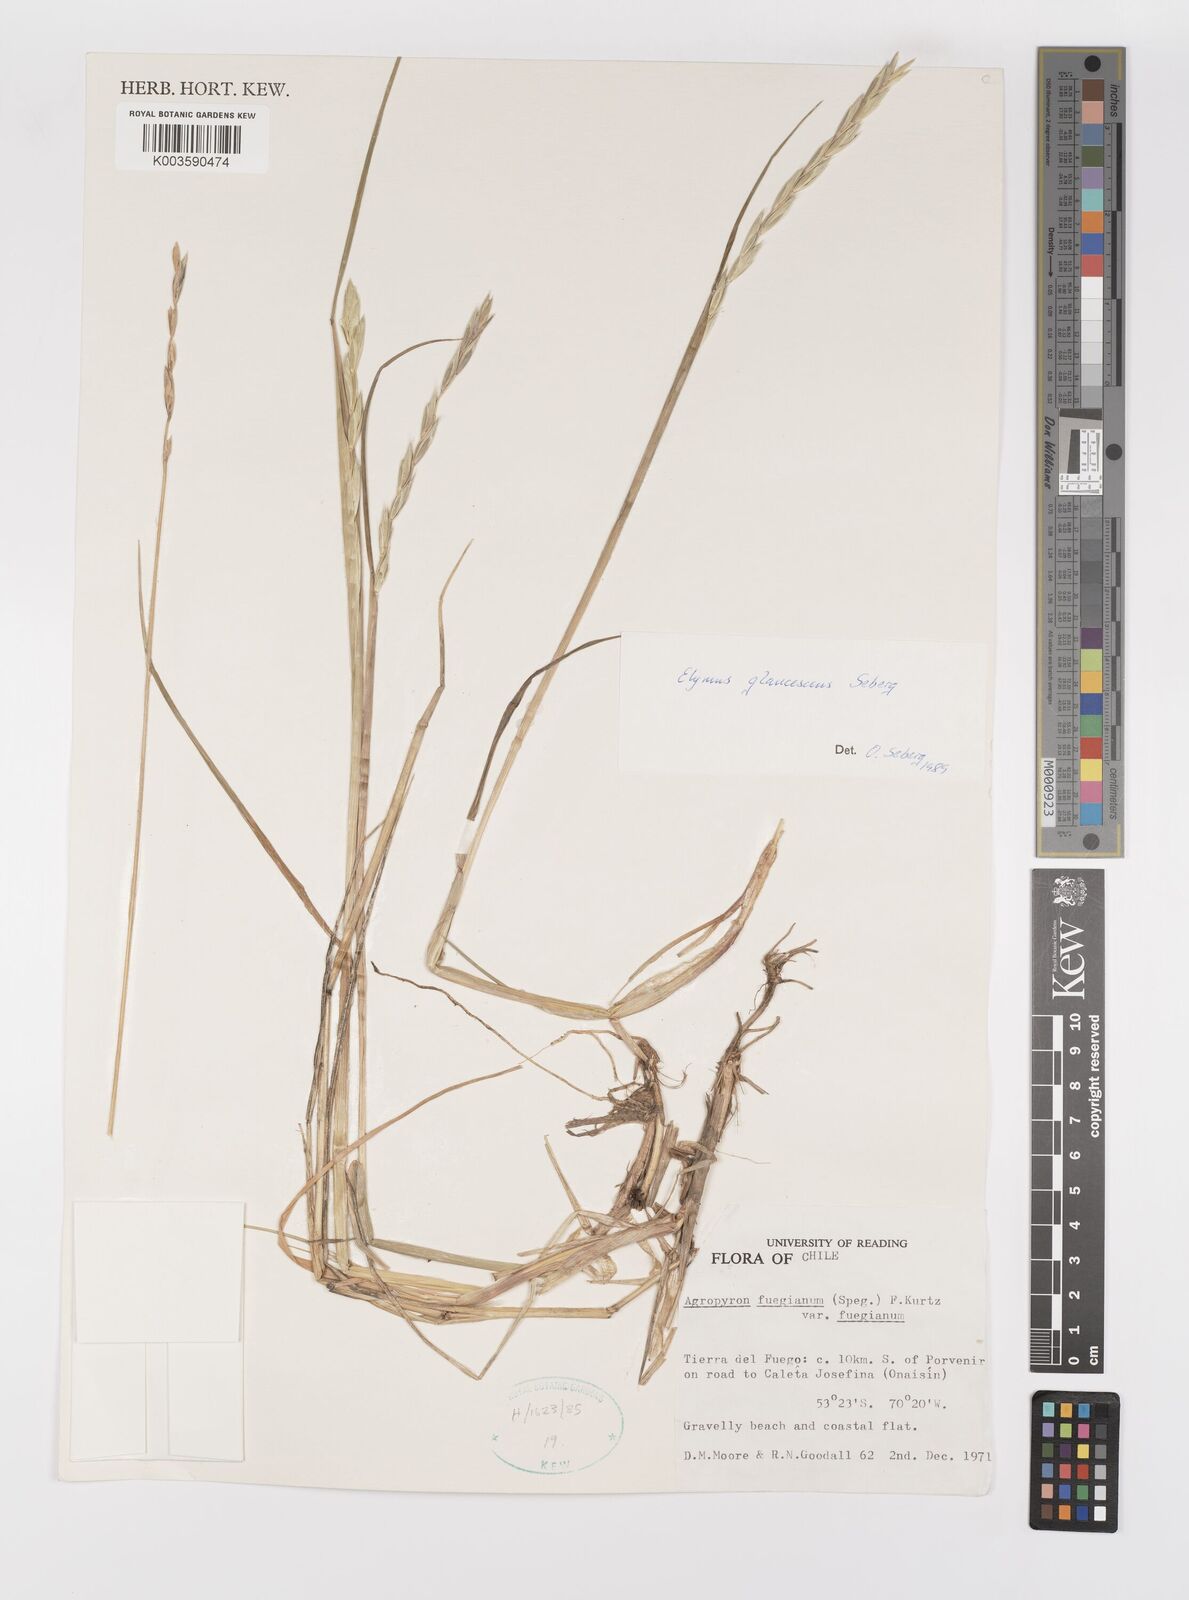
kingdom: Plantae
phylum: Tracheophyta
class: Liliopsida
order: Poales
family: Poaceae
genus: Elymus
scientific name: Elymus magellanicus
